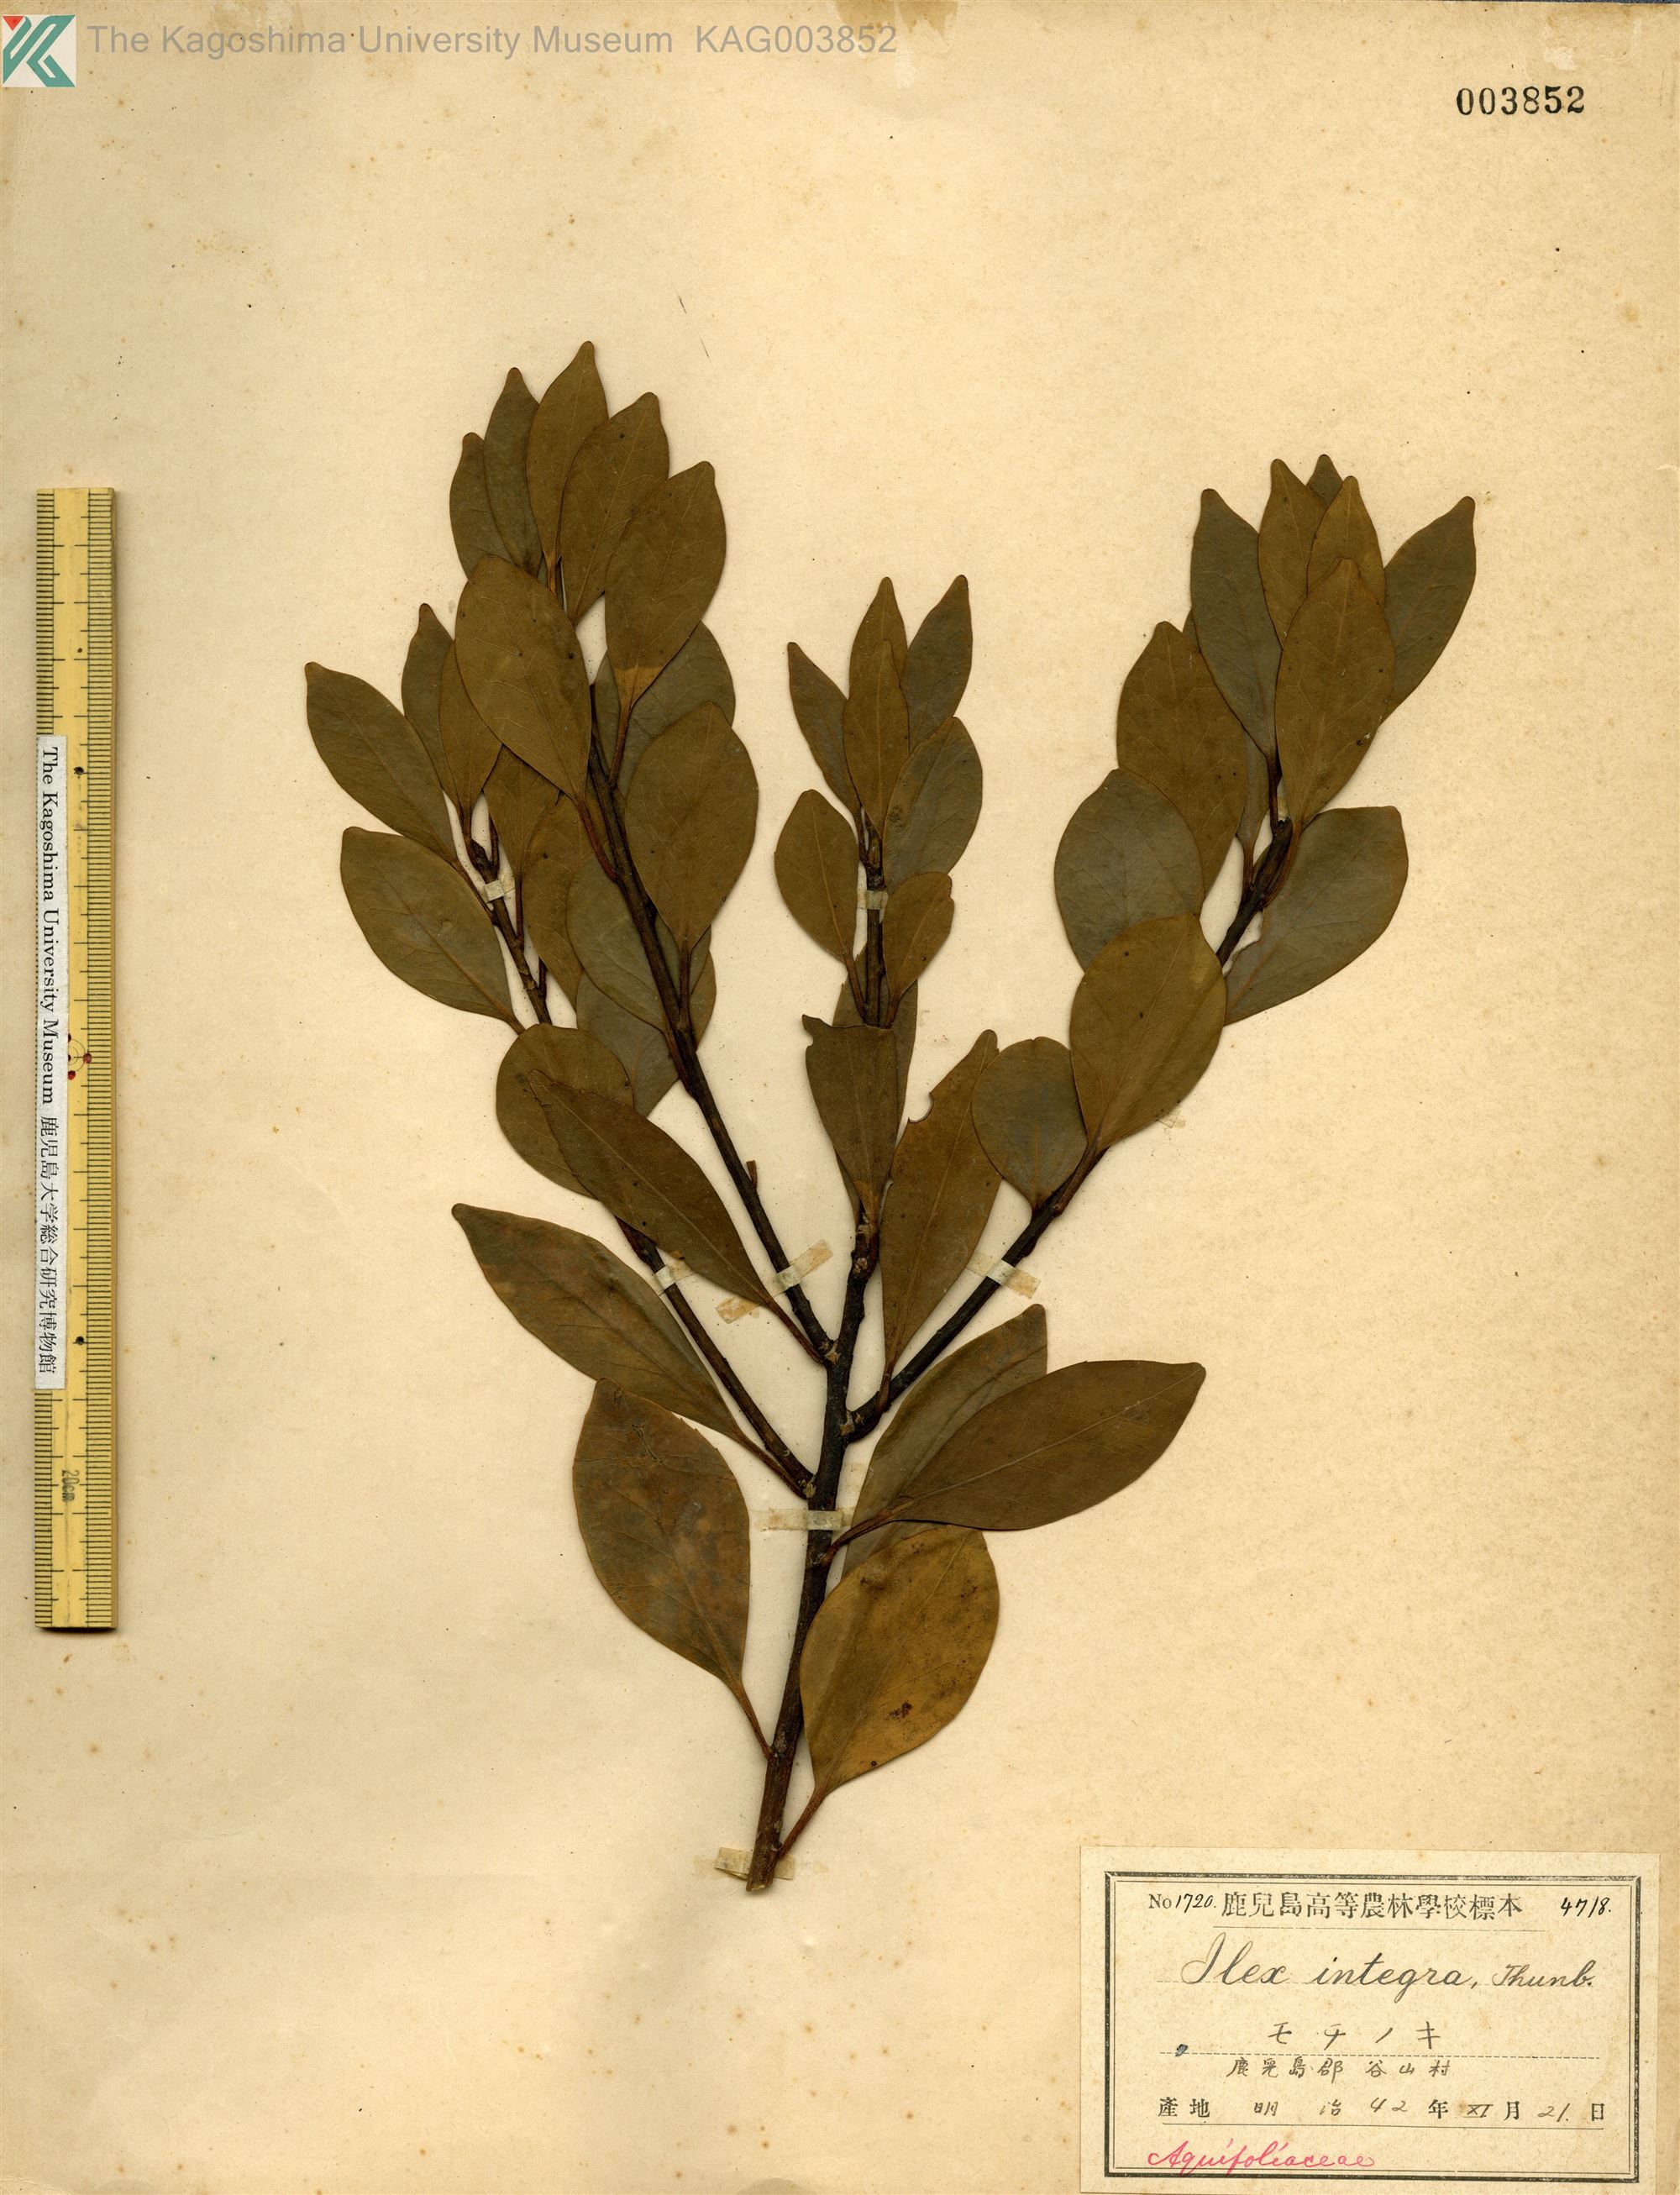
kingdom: Plantae
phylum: Tracheophyta
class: Magnoliopsida
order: Aquifoliales
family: Aquifoliaceae
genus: Ilex
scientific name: Ilex integra
